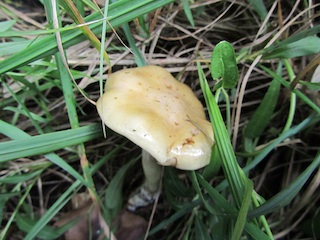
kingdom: Fungi
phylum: Basidiomycota
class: Agaricomycetes
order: Agaricales
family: Cortinariaceae
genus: Cortinarius
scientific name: Cortinarius delibutus
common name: gul slørhat
